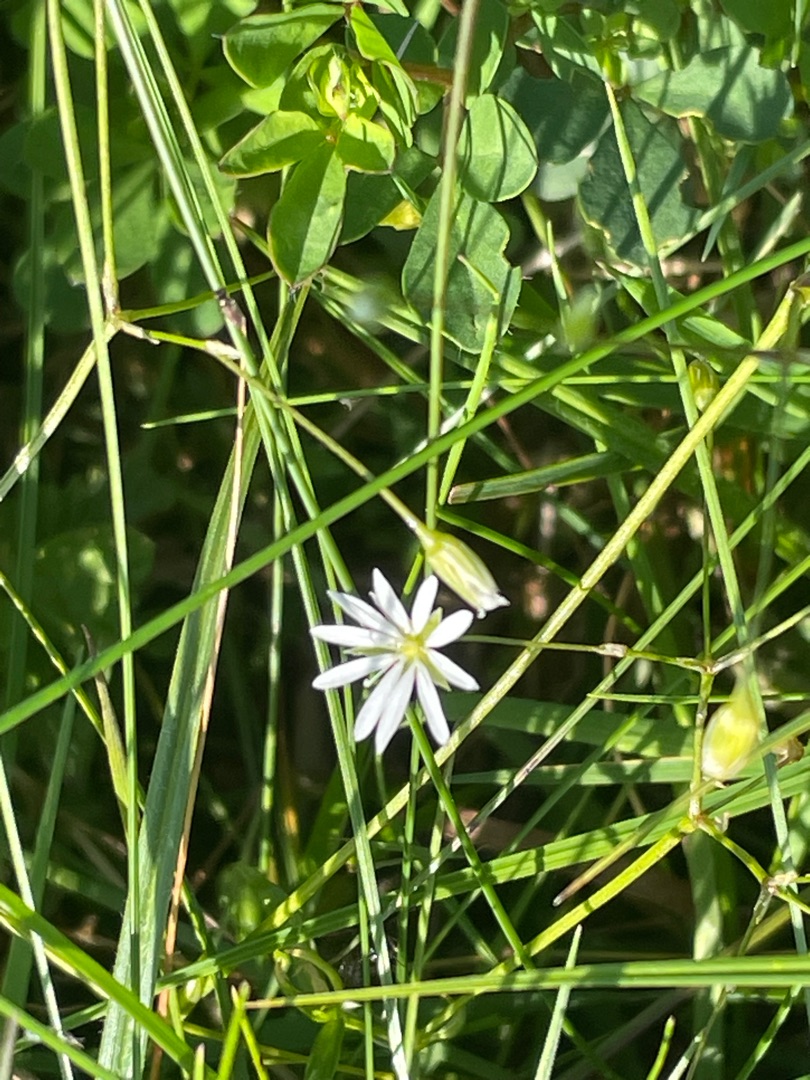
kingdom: Plantae
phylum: Tracheophyta
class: Magnoliopsida
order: Caryophyllales
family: Caryophyllaceae
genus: Stellaria
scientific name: Stellaria graminea
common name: Græsbladet fladstjerne
